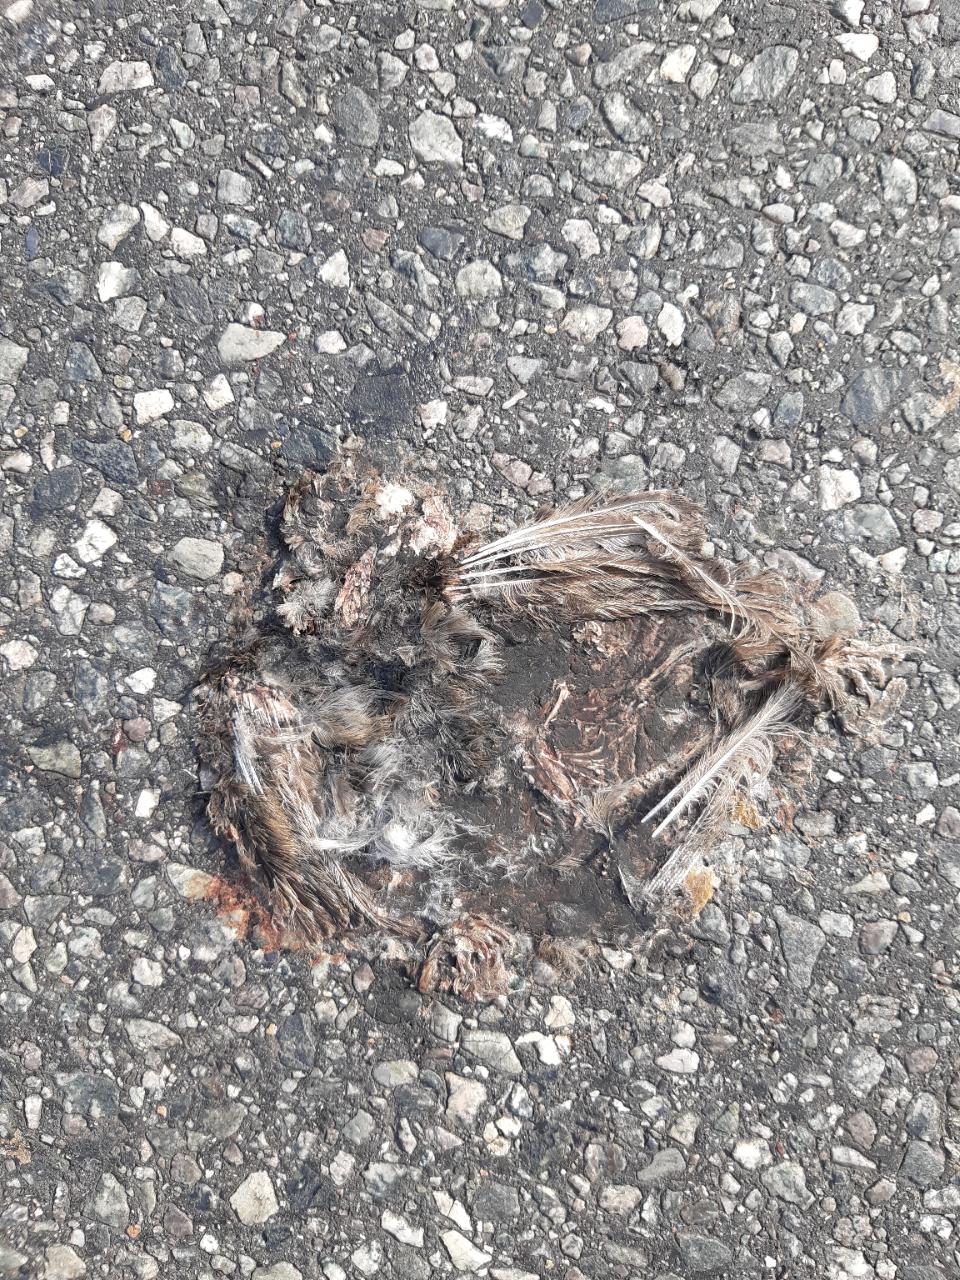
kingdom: Animalia
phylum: Chordata
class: Aves
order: Passeriformes
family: Passeridae
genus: Passer
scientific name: Passer
